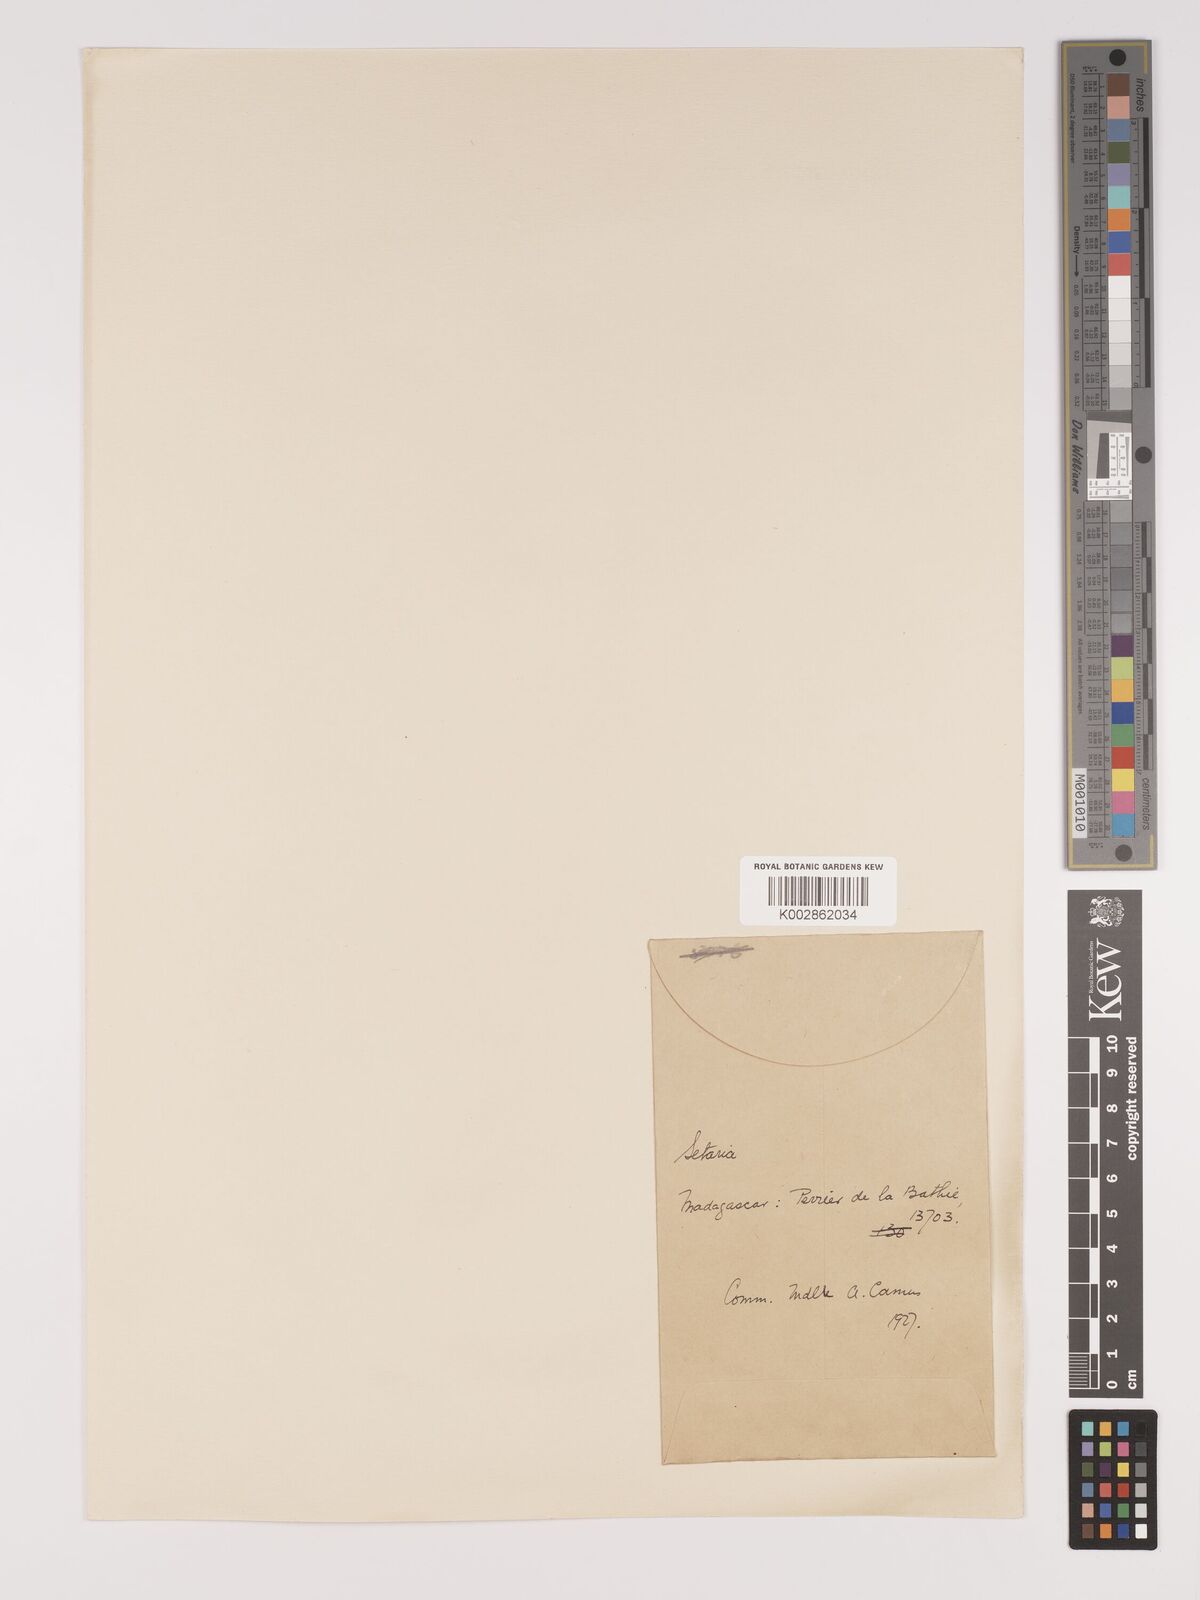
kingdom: Plantae
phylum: Tracheophyta
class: Liliopsida
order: Poales
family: Poaceae
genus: Setaria
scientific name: Setaria
